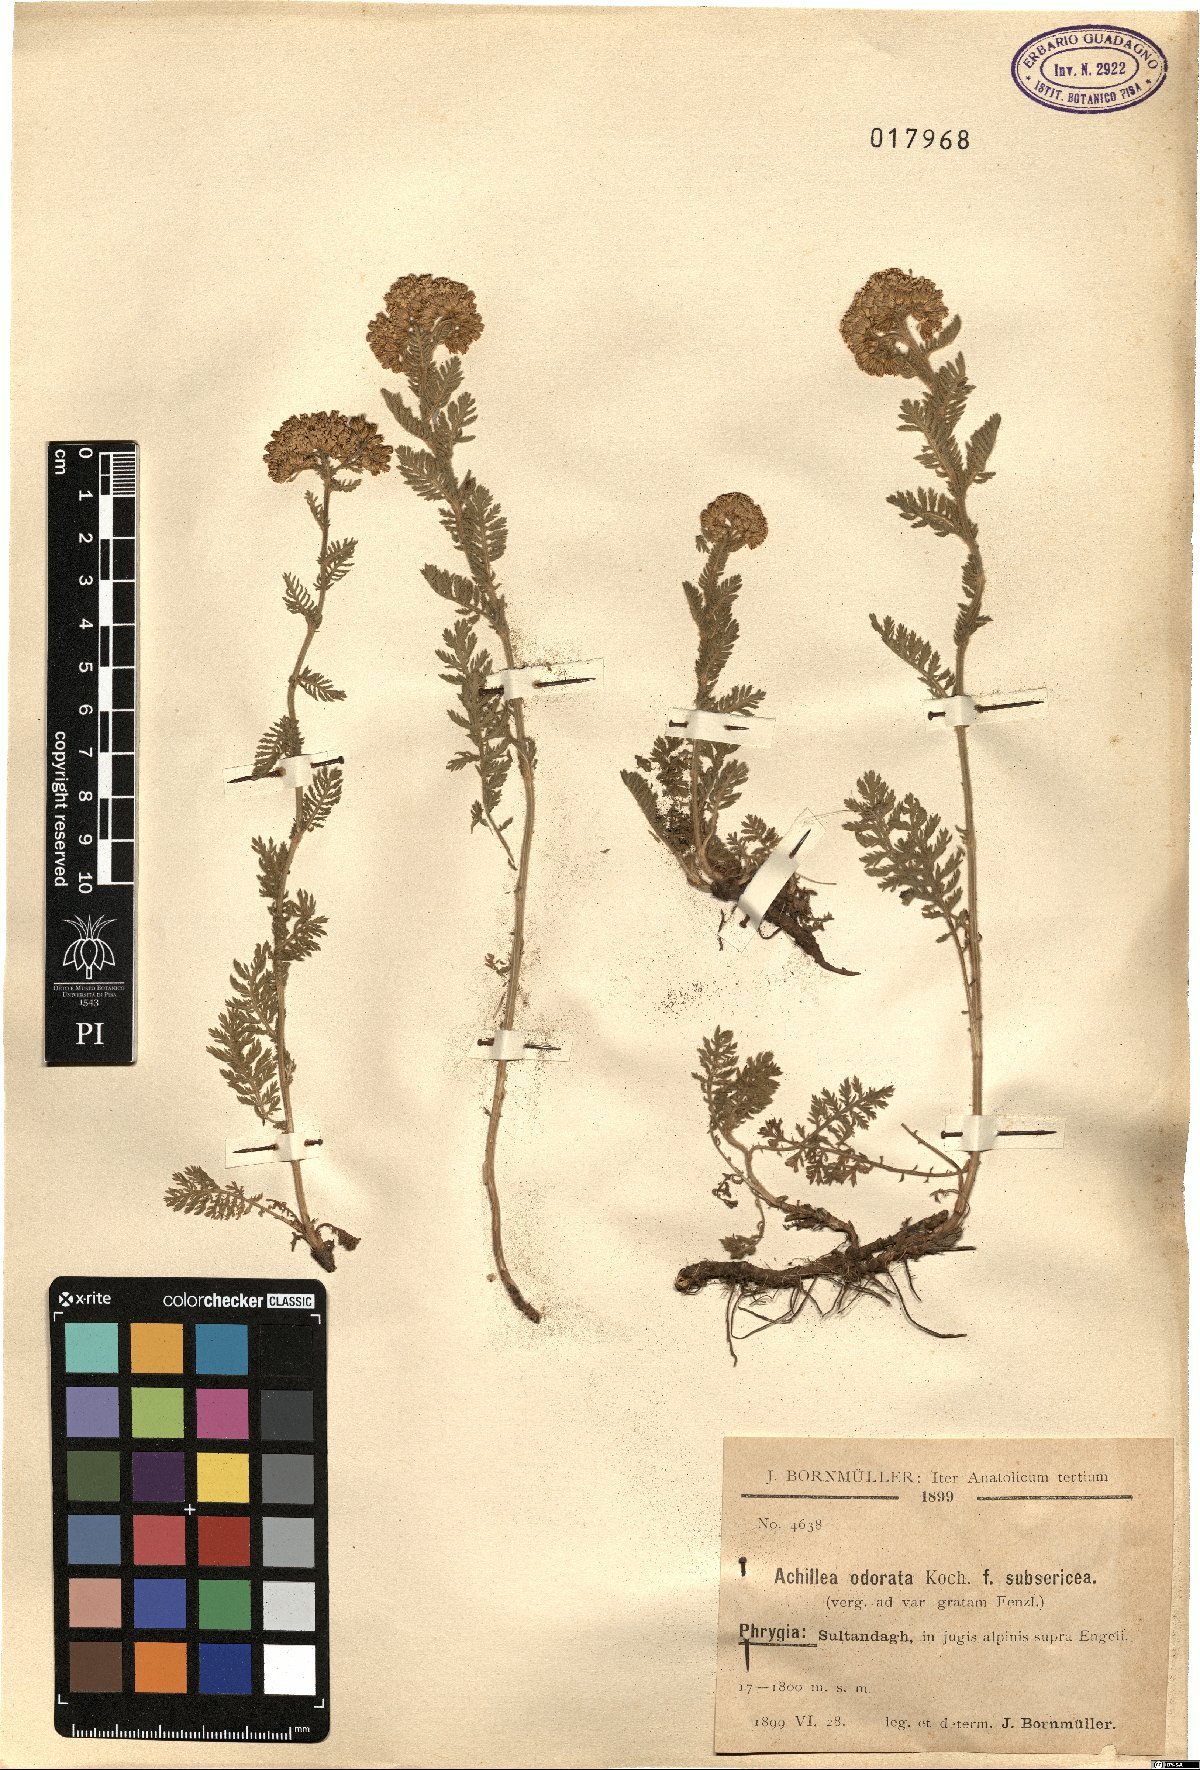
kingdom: Plantae
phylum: Tracheophyta
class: Magnoliopsida
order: Asterales
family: Asteraceae
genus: Achillea
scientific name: Achillea odorata
